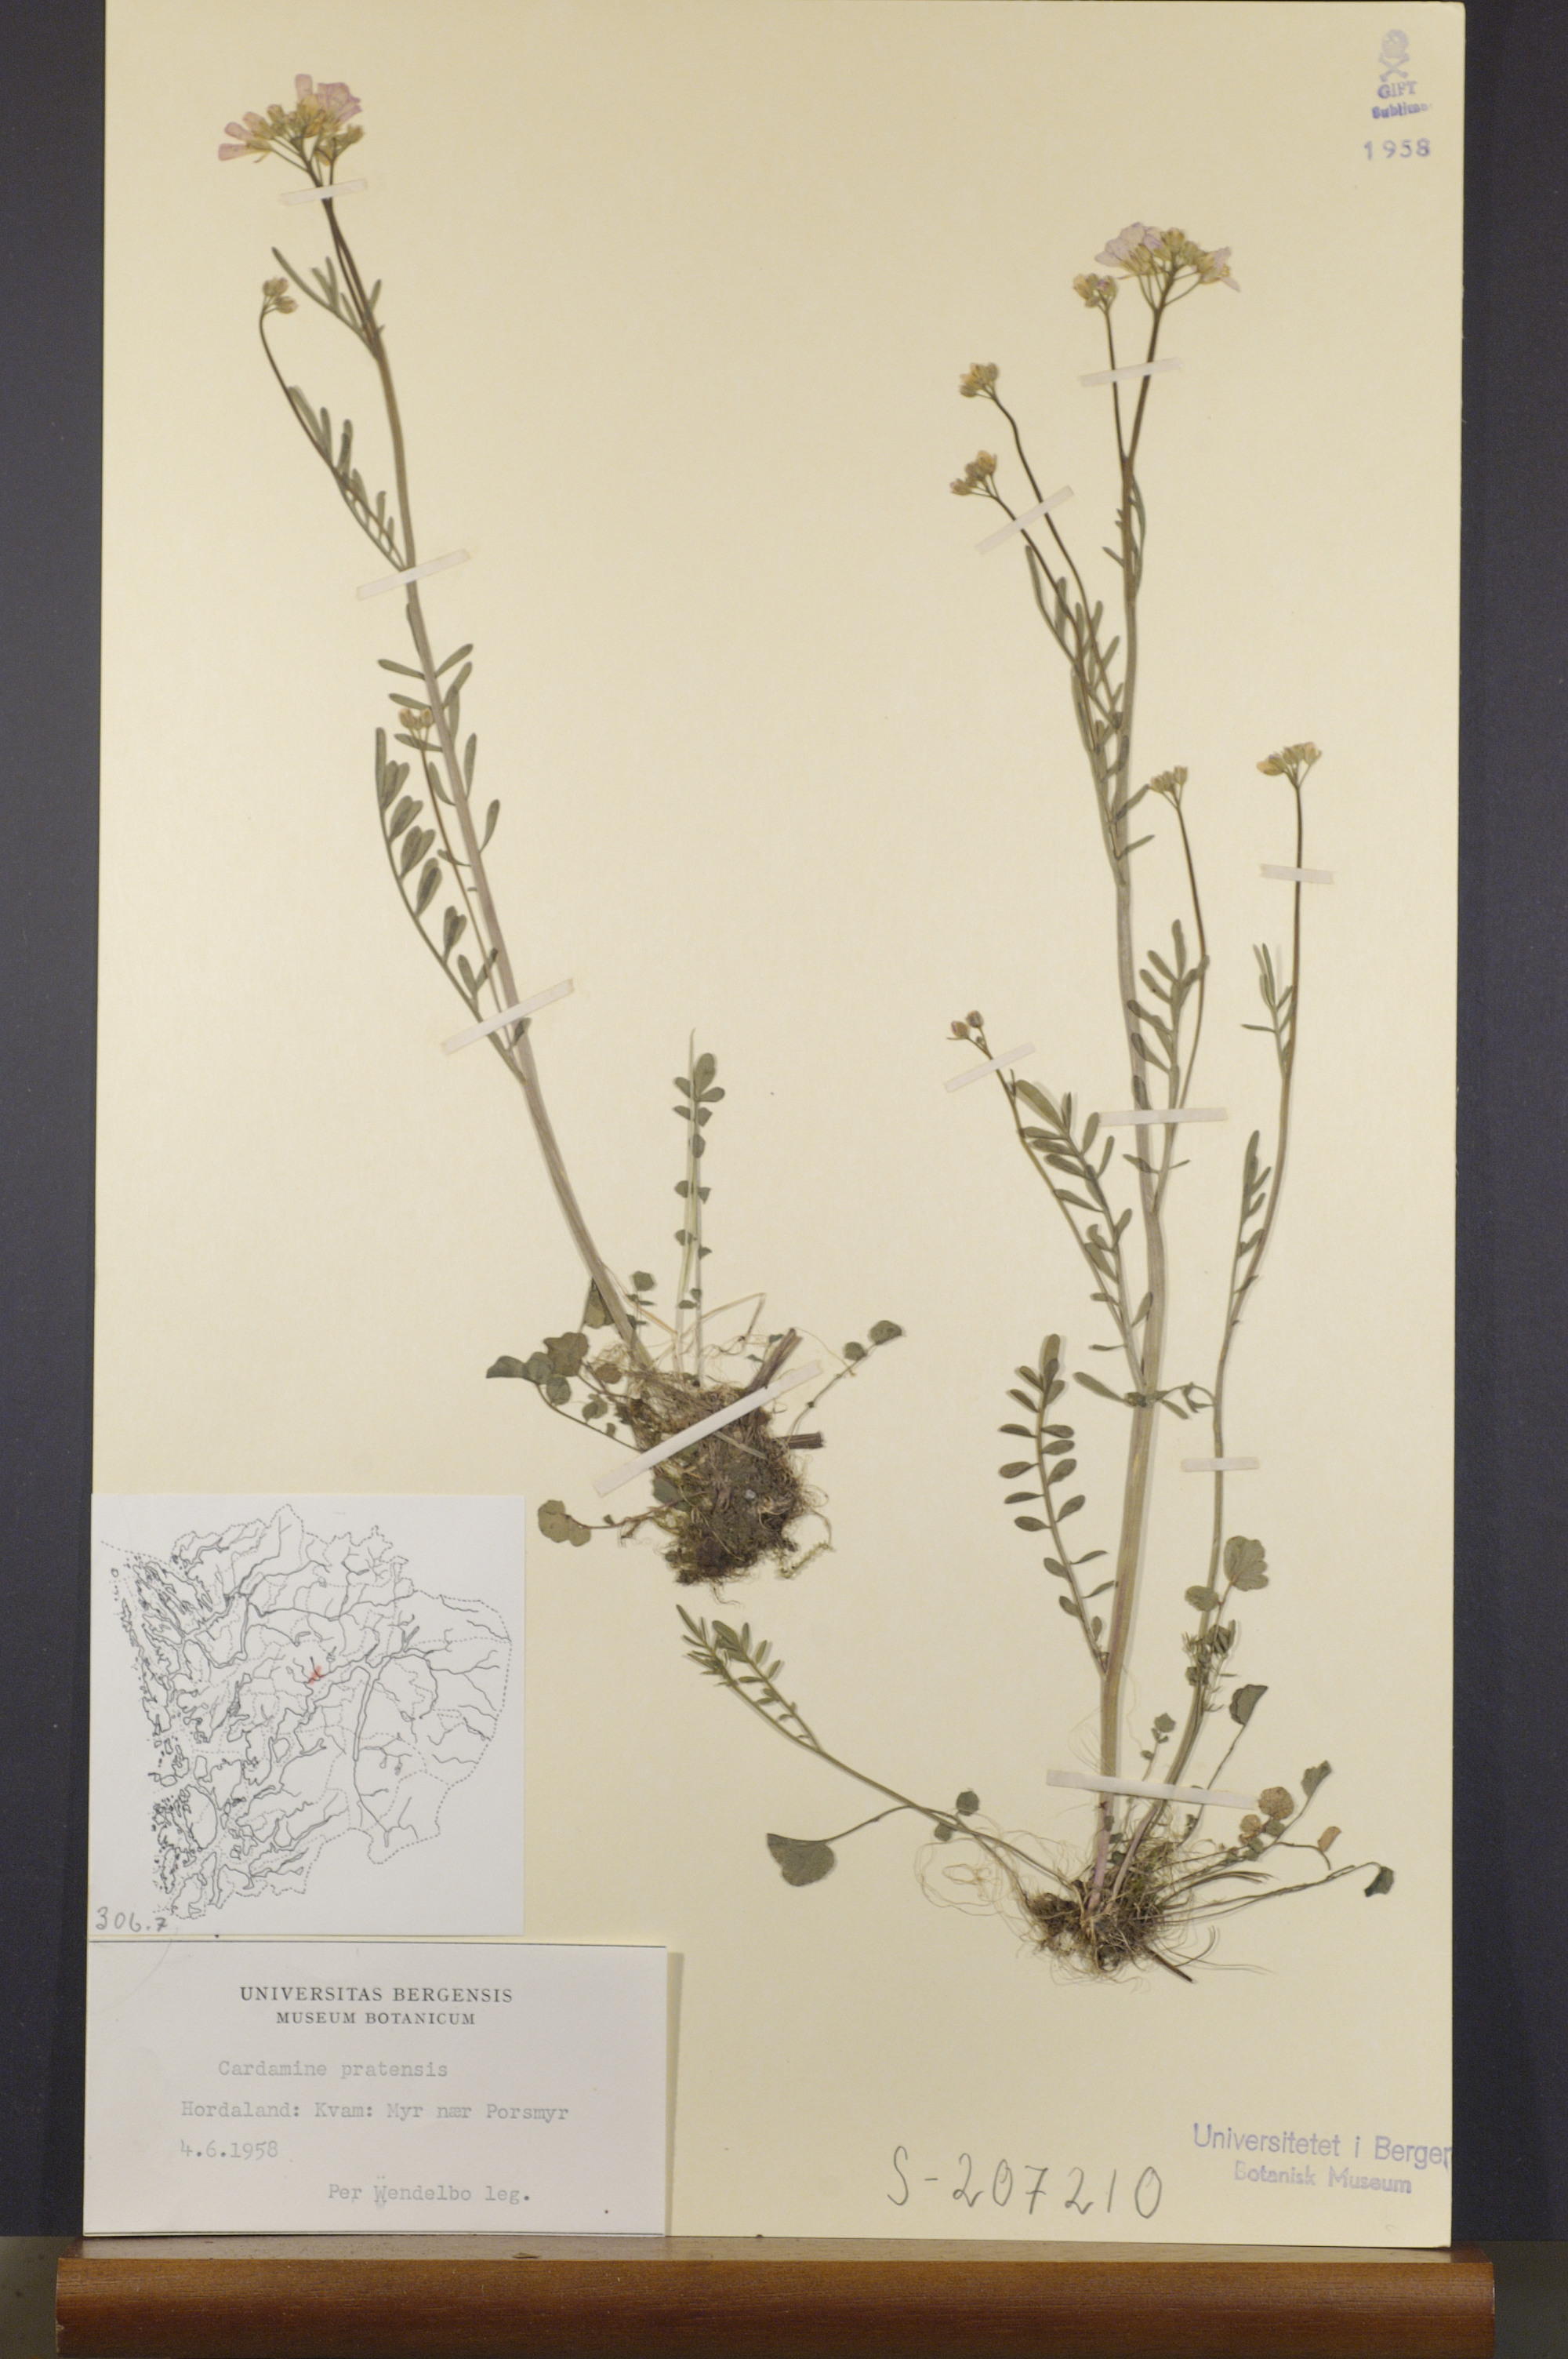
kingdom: Plantae
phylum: Tracheophyta
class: Magnoliopsida
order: Brassicales
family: Brassicaceae
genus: Cardamine
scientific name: Cardamine pratensis
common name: Cuckoo flower
